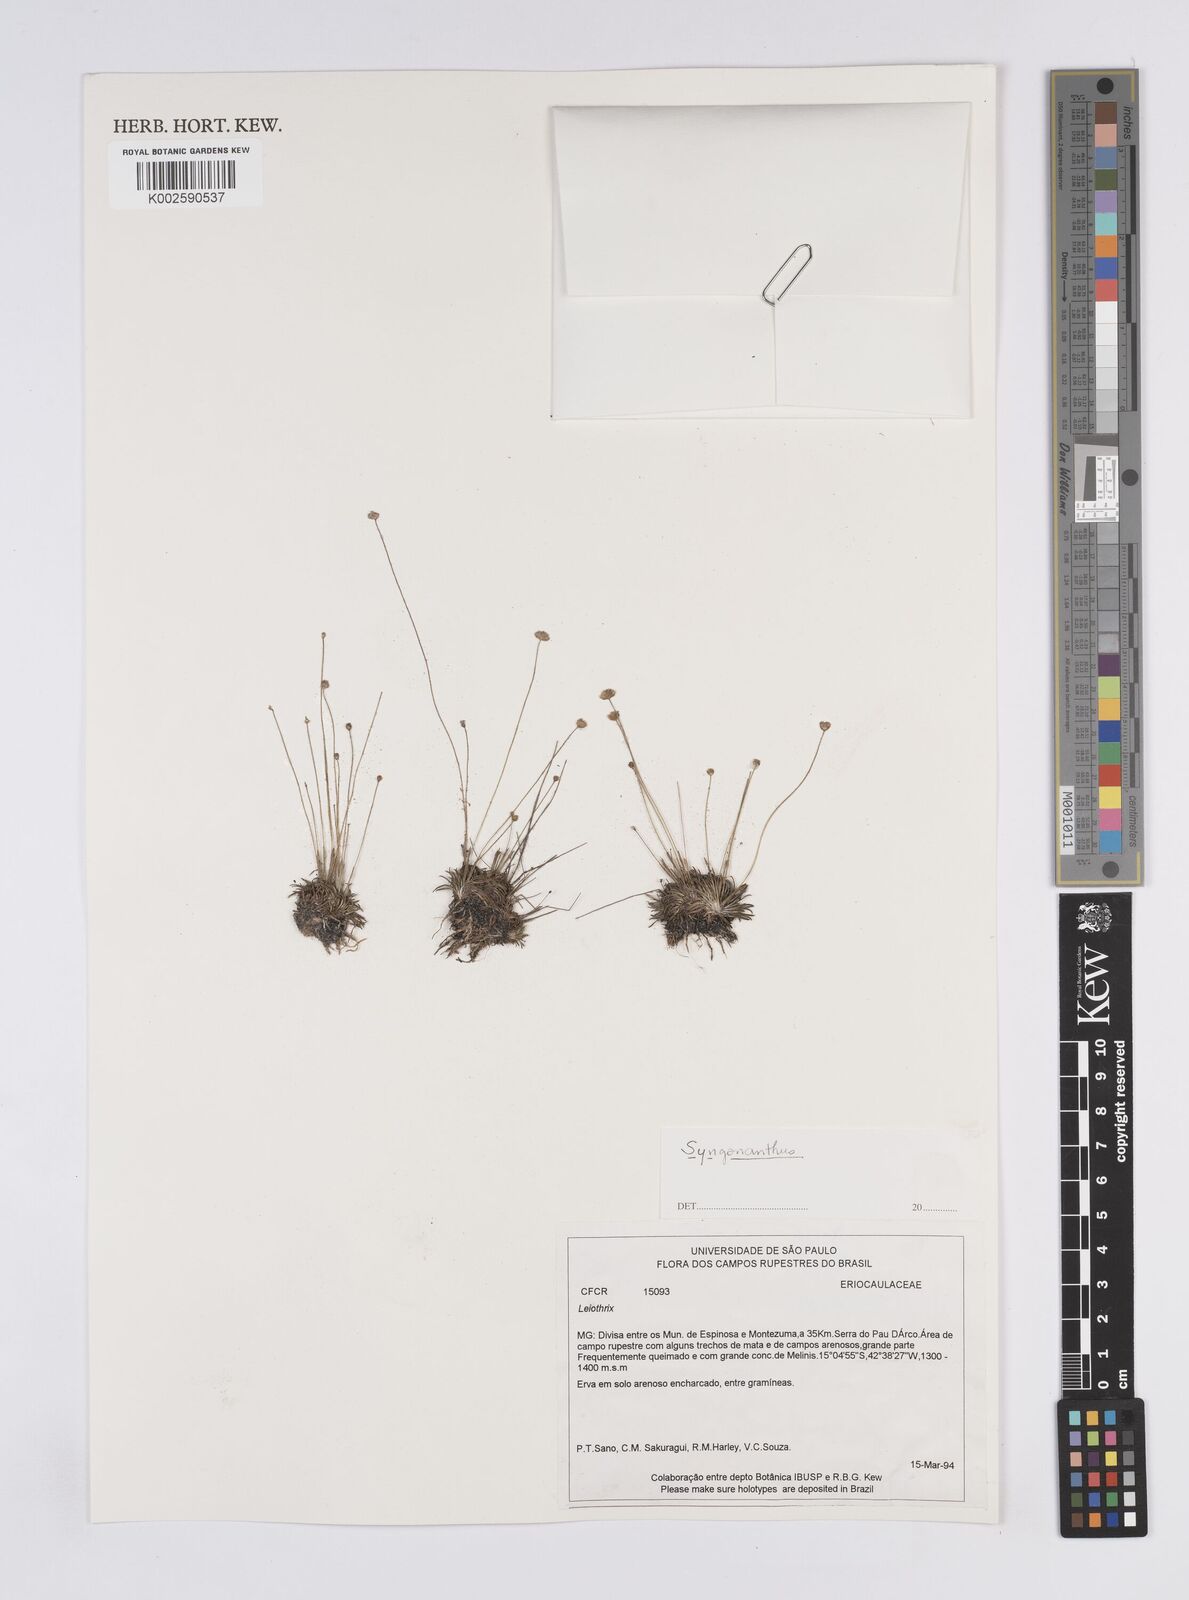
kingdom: Plantae
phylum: Tracheophyta
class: Liliopsida
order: Poales
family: Eriocaulaceae
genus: Syngonanthus
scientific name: Syngonanthus
